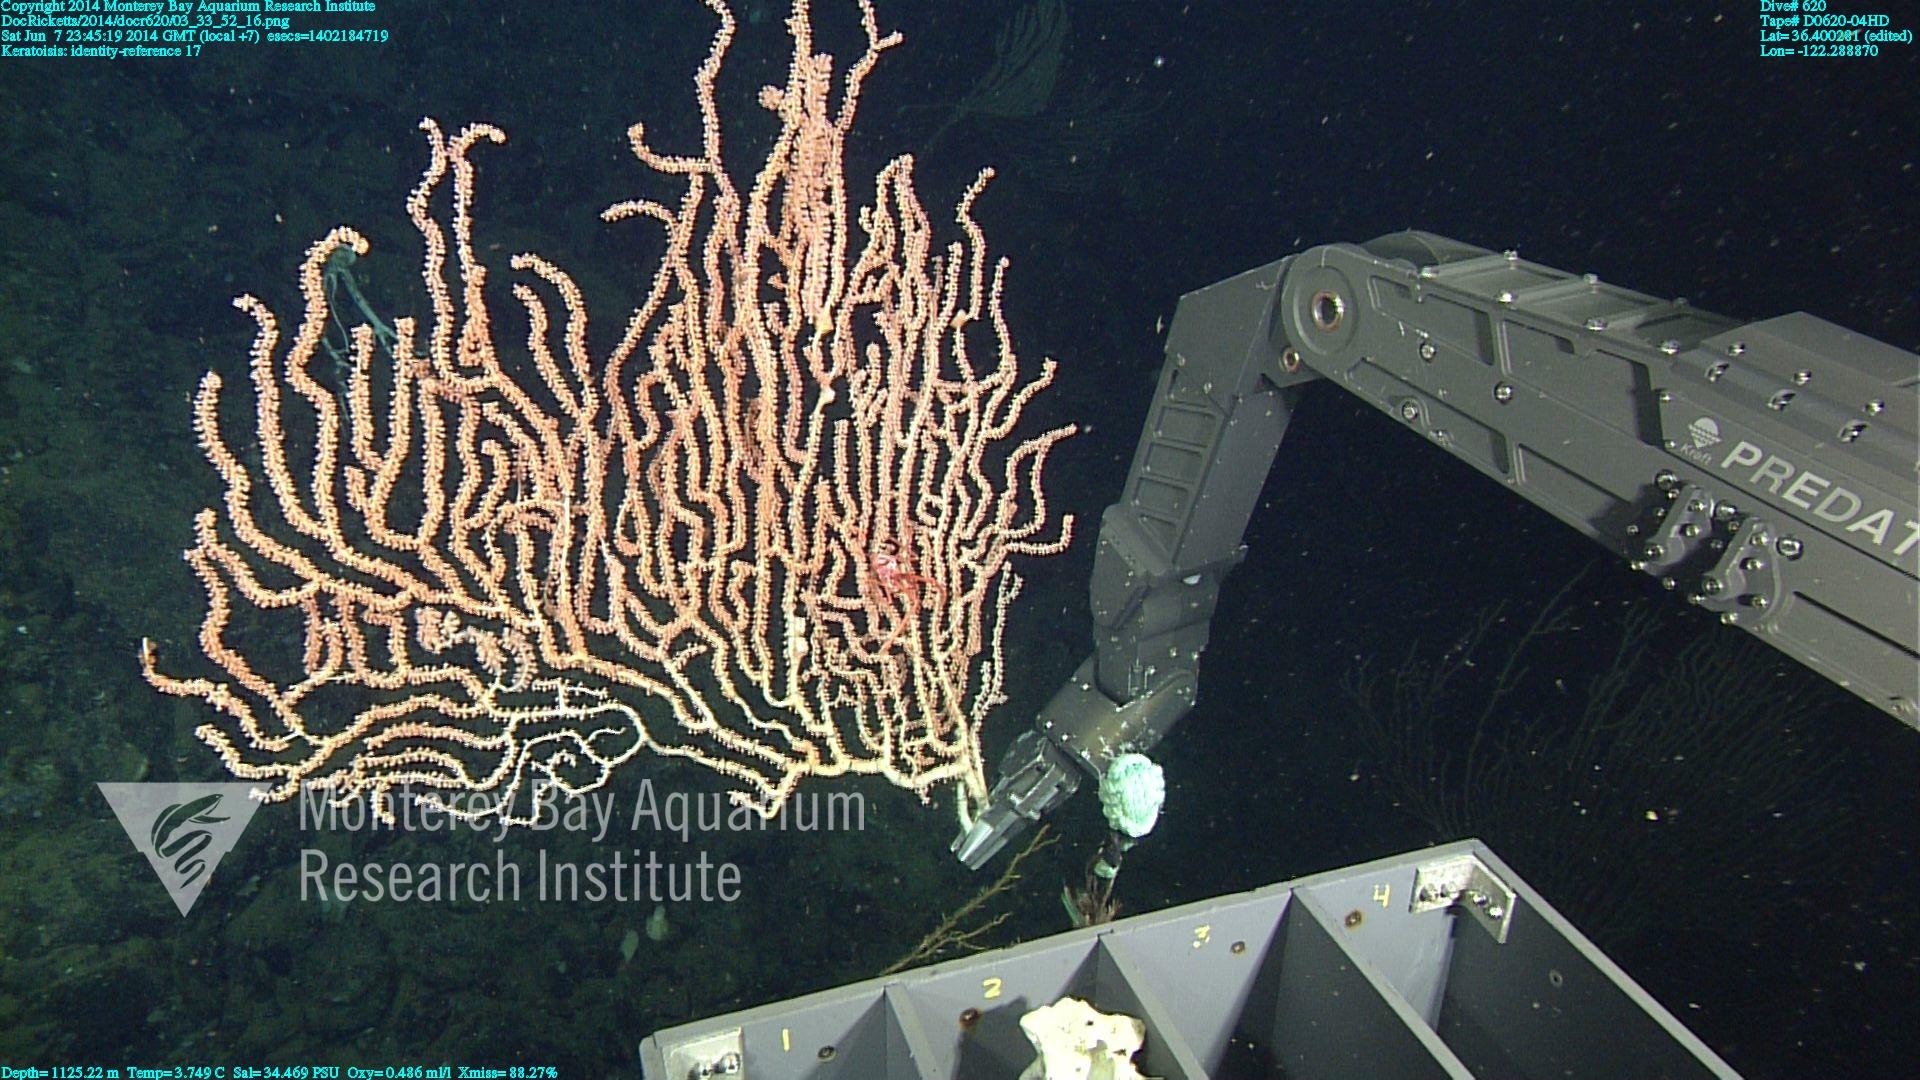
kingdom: Animalia
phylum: Cnidaria
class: Anthozoa
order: Scleralcyonacea
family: Keratoisididae
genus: Keratoisis
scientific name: Keratoisis
